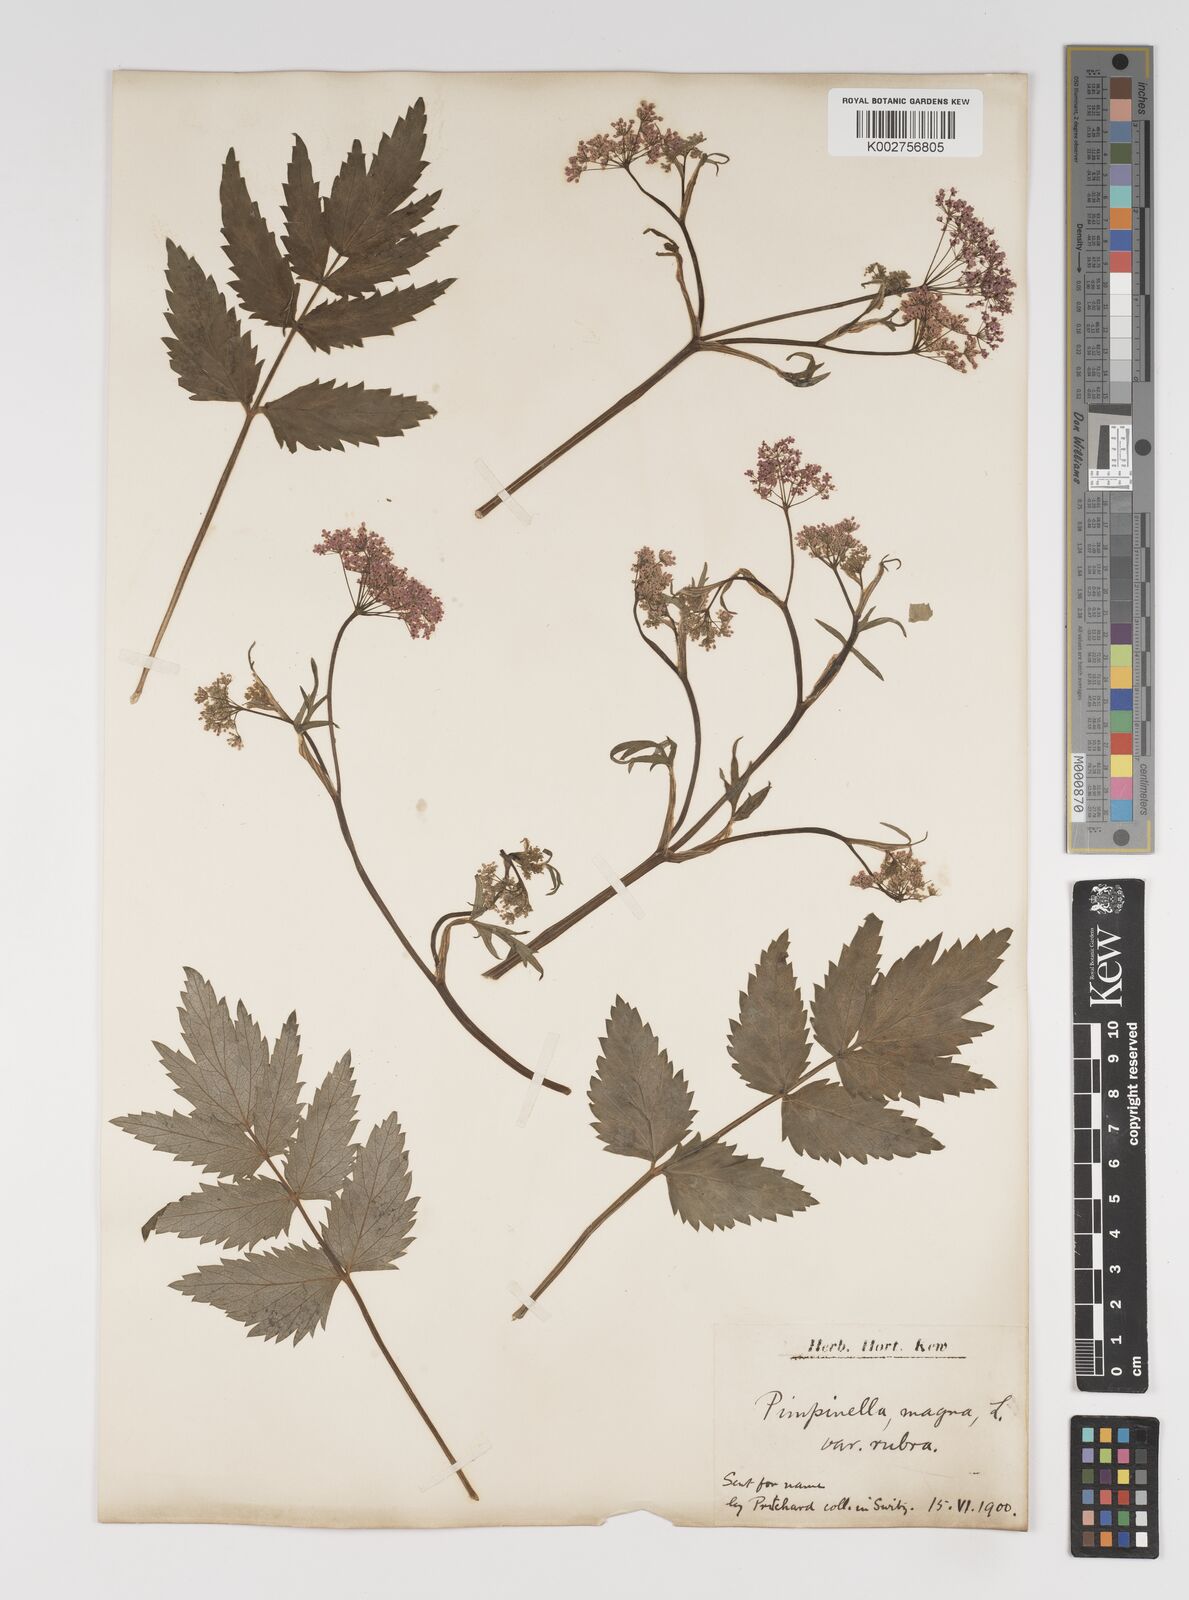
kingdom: Plantae
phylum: Tracheophyta
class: Magnoliopsida
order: Apiales
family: Apiaceae
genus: Pimpinella
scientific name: Pimpinella major
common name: Greater burnet-saxifrage
